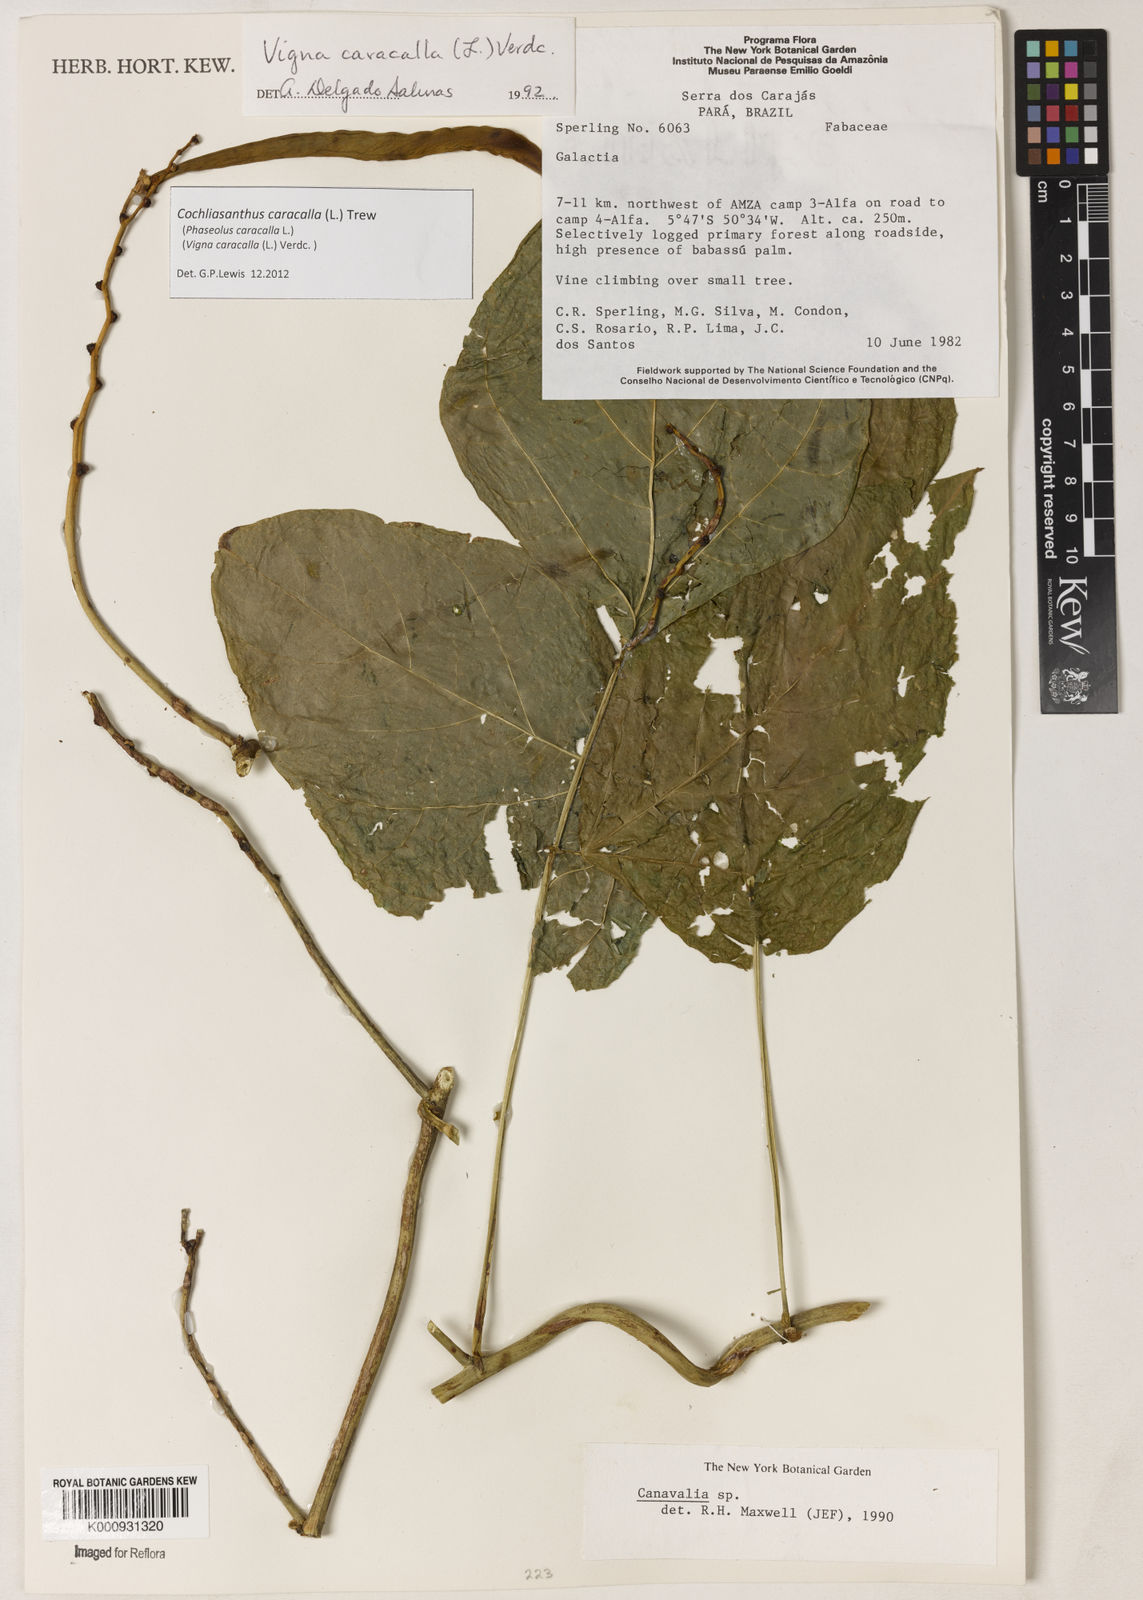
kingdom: Plantae
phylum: Tracheophyta
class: Magnoliopsida
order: Fabales
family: Fabaceae
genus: Cochliasanthus
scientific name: Cochliasanthus caracalla
